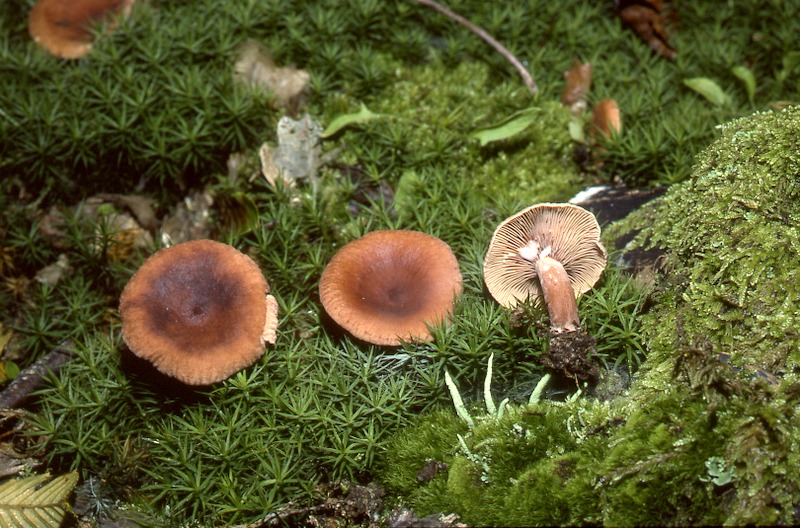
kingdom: Fungi
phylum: Basidiomycota
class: Agaricomycetes
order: Russulales
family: Russulaceae
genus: Lactarius
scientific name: Lactarius camphoratus
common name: Curry milkcap
